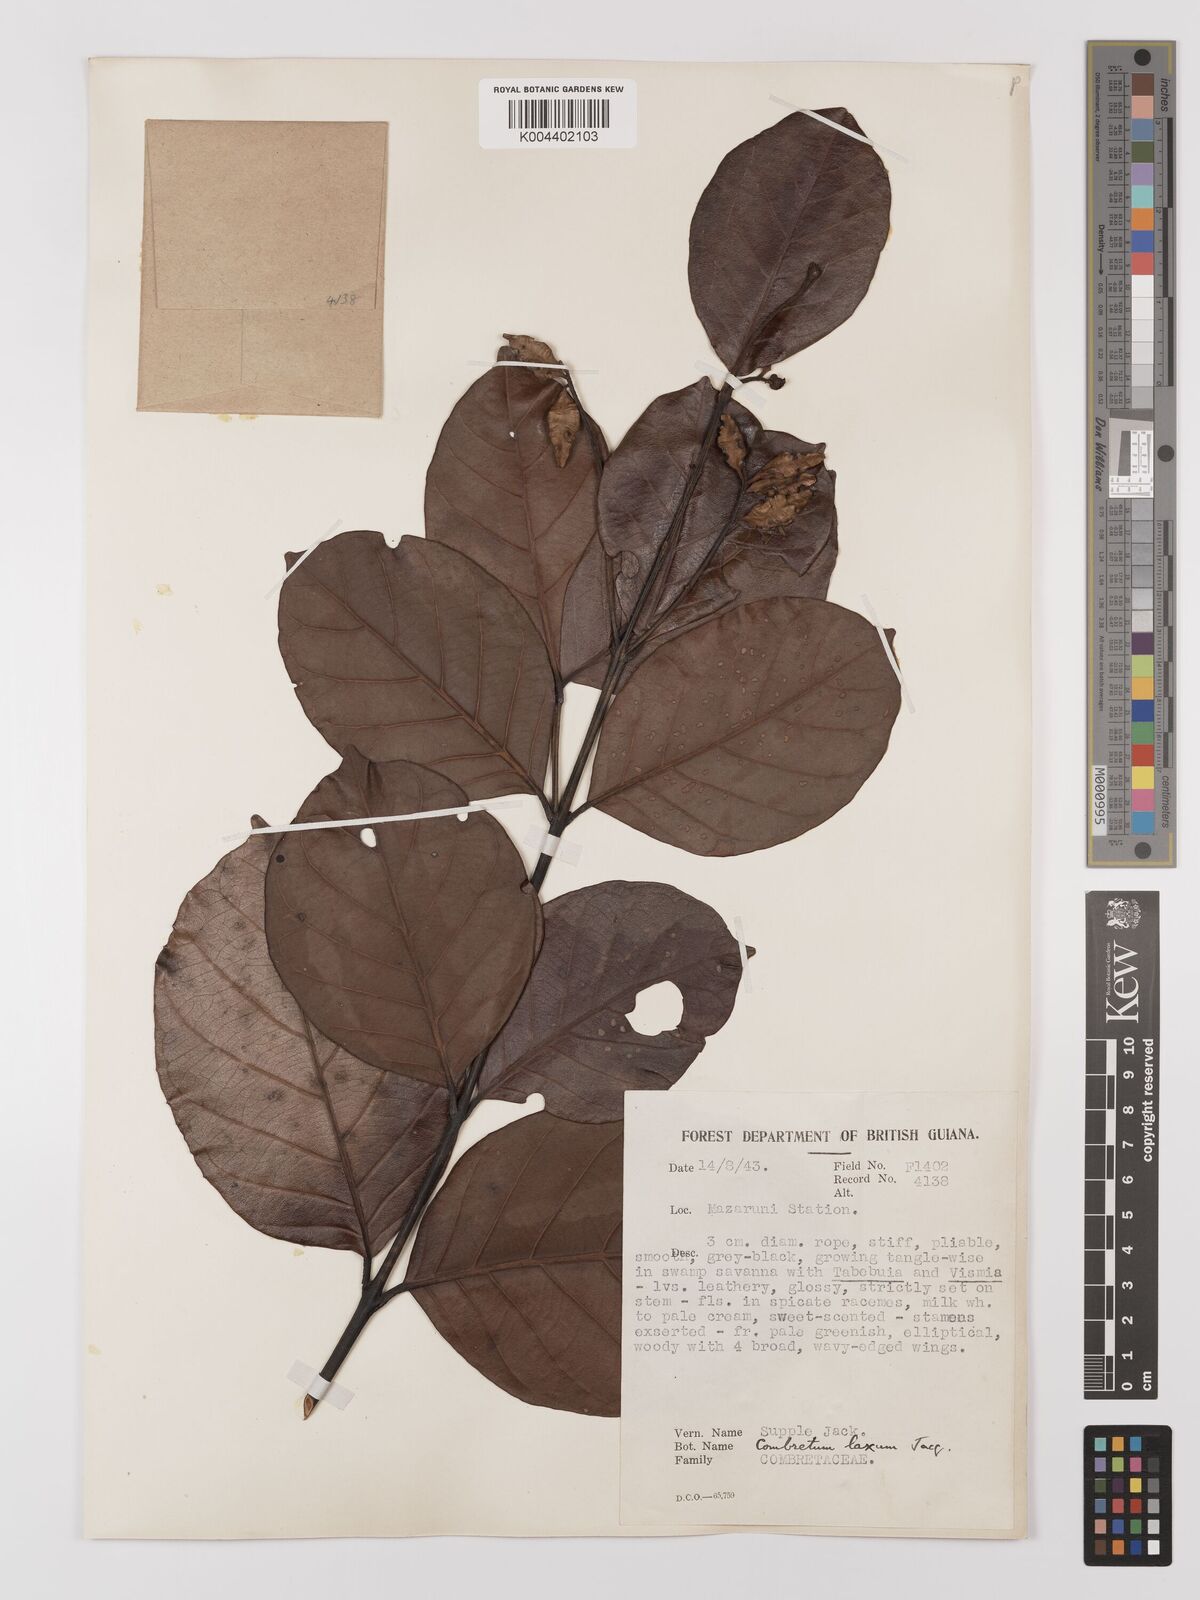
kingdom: Plantae
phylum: Tracheophyta
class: Magnoliopsida
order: Myrtales
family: Combretaceae
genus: Combretum
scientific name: Combretum
